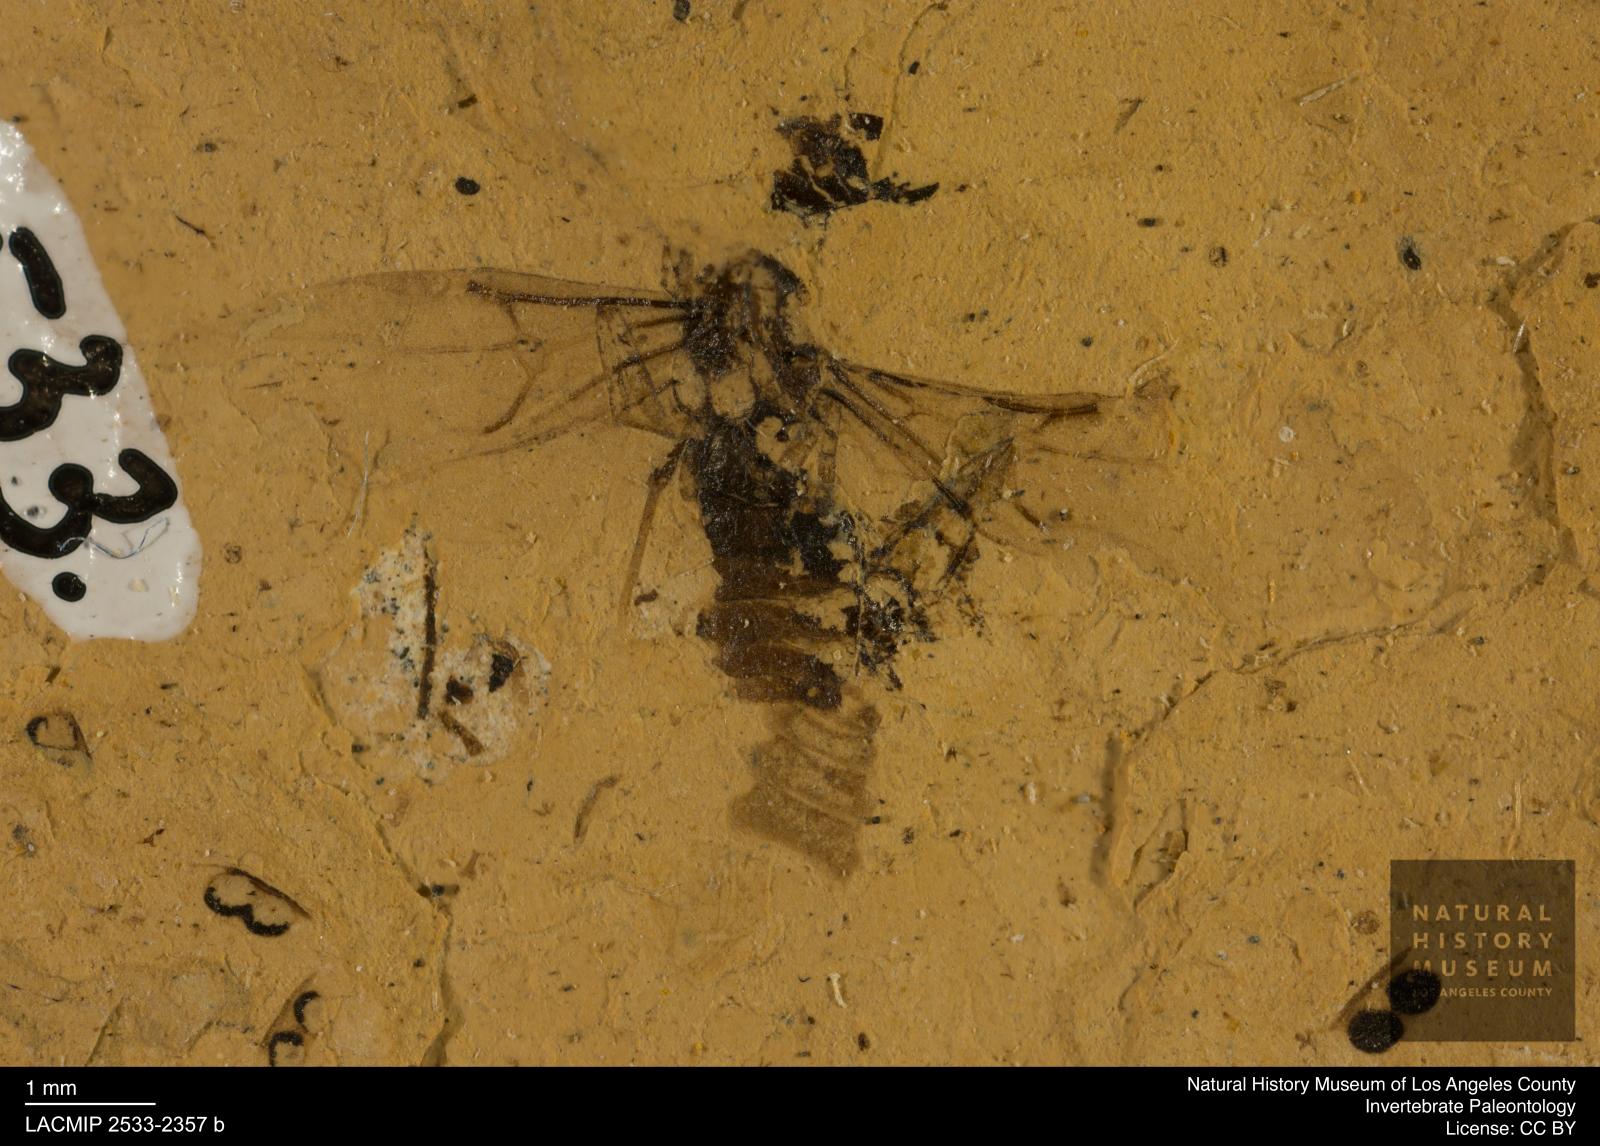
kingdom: Animalia
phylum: Arthropoda
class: Insecta
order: Hymenoptera
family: Formicidae
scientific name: Formicidae
